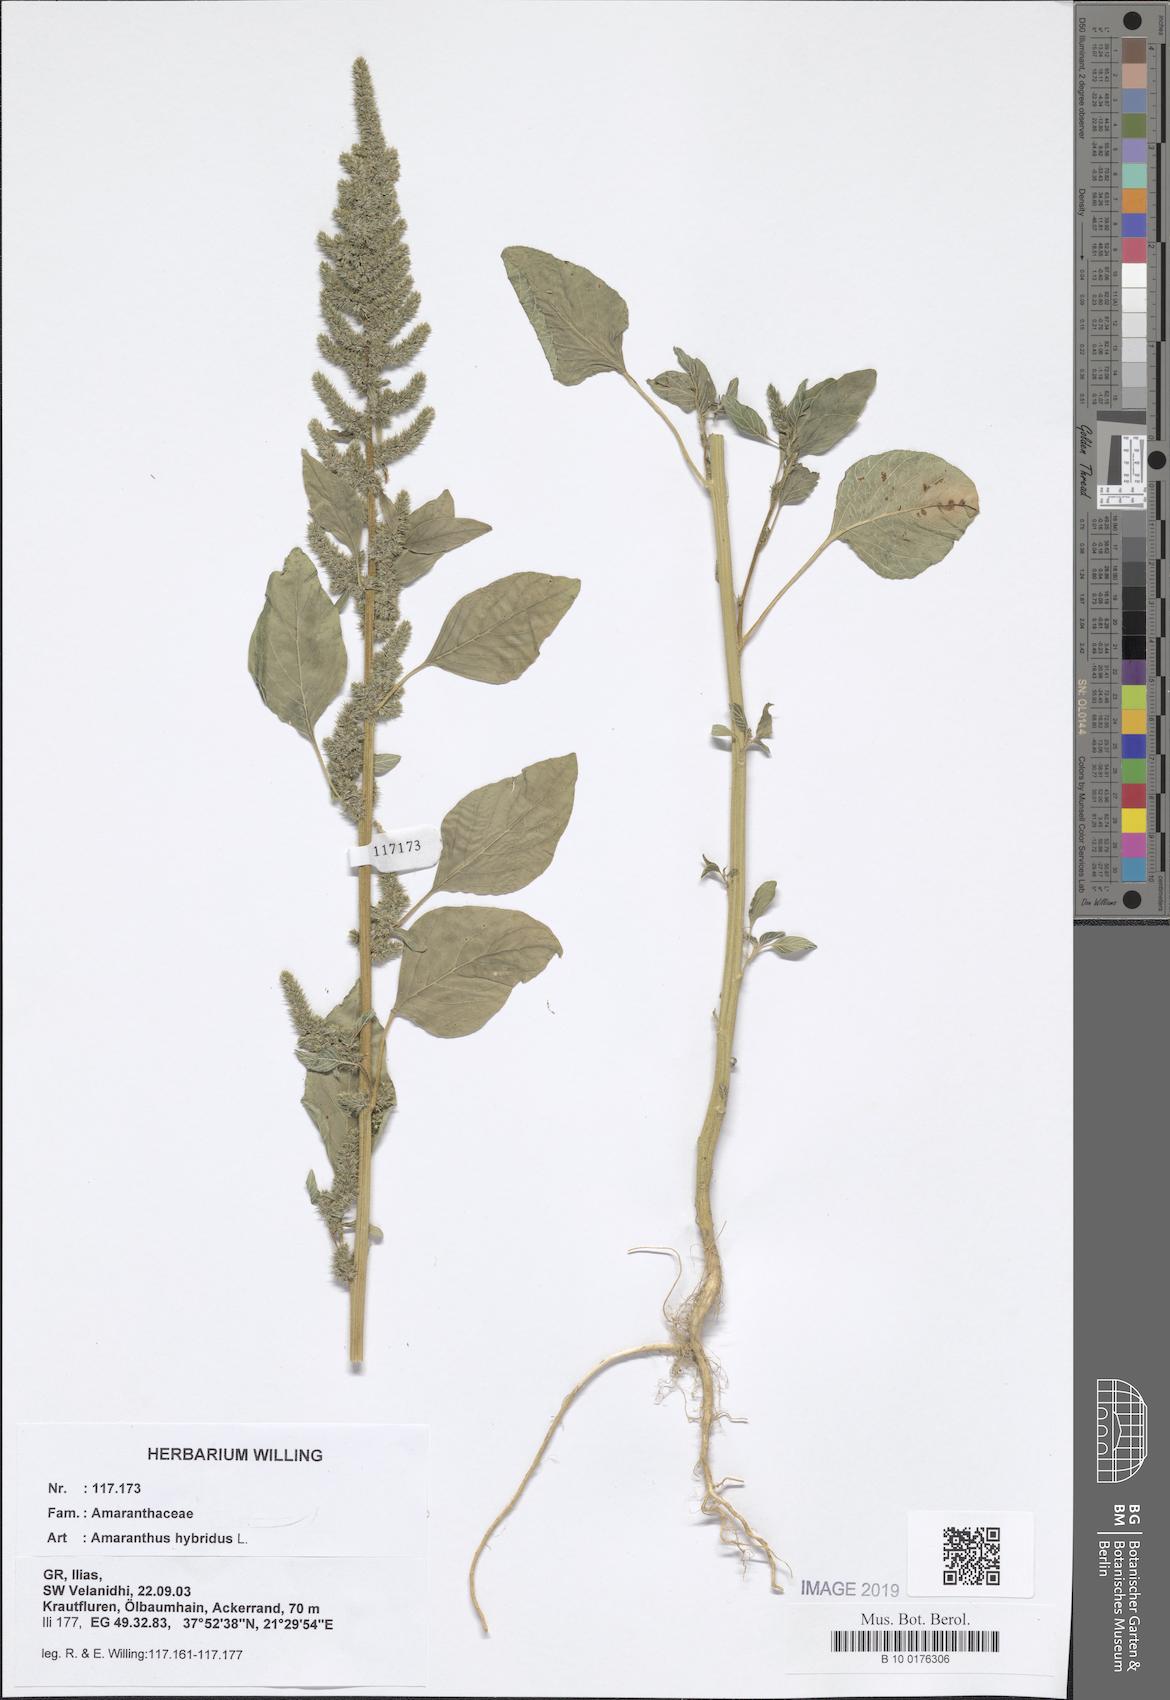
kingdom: Plantae
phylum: Tracheophyta
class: Magnoliopsida
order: Caryophyllales
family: Amaranthaceae
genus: Amaranthus
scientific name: Amaranthus hybridus
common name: Green amaranth
